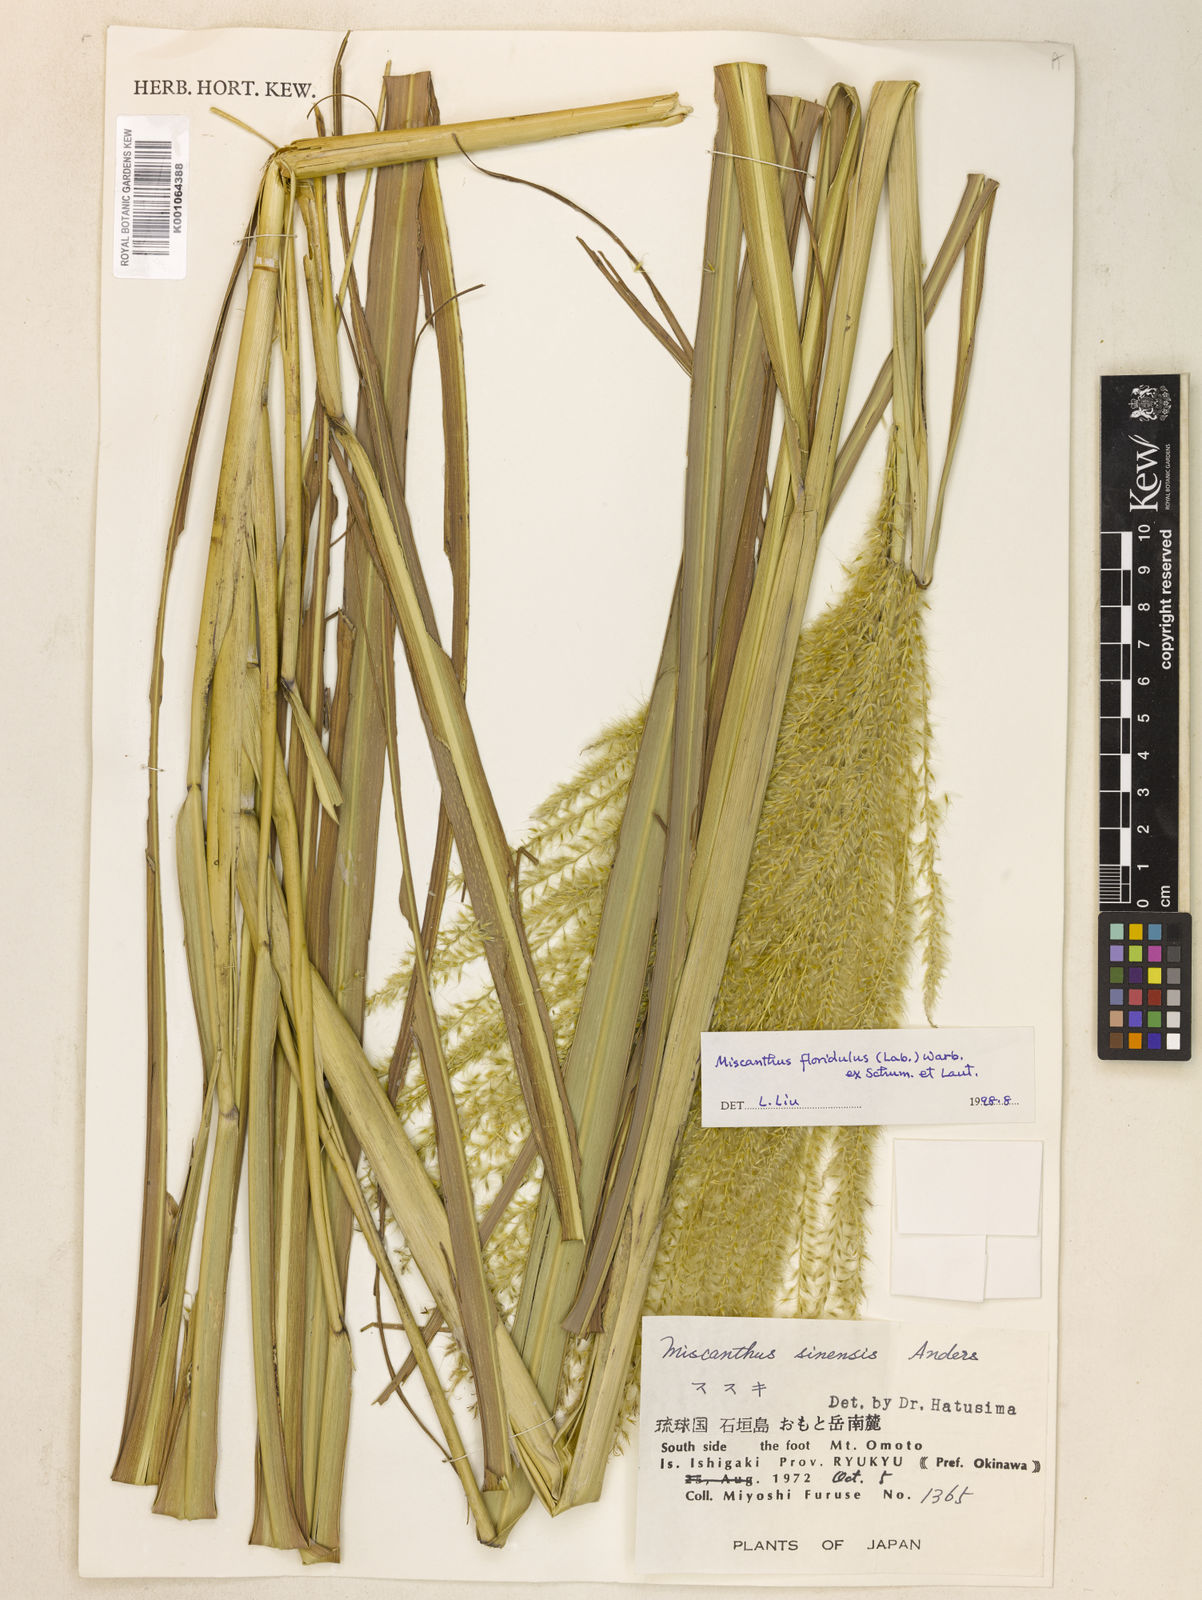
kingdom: Plantae
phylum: Tracheophyta
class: Liliopsida
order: Poales
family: Poaceae
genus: Miscanthus
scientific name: Miscanthus sinensis
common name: Chinese silvergrass
